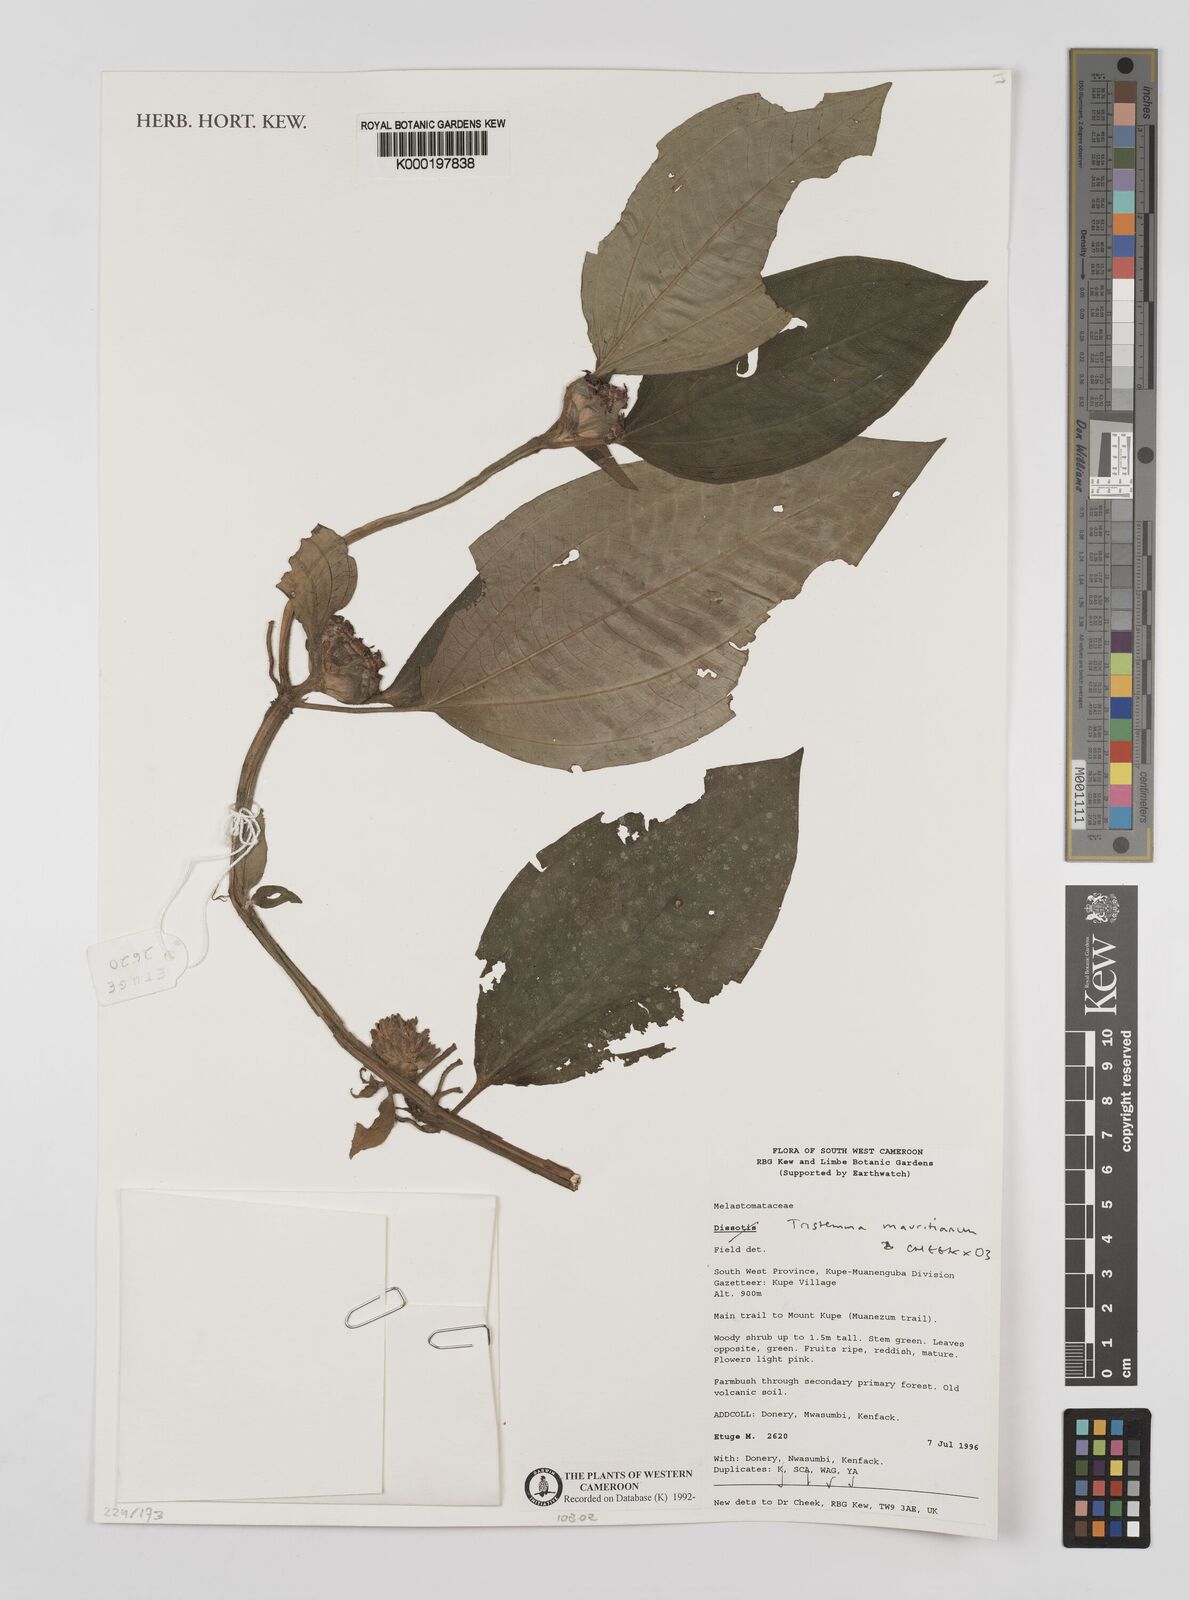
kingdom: Plantae
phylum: Tracheophyta
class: Magnoliopsida
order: Myrtales
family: Melastomataceae
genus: Tristemma
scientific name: Tristemma
